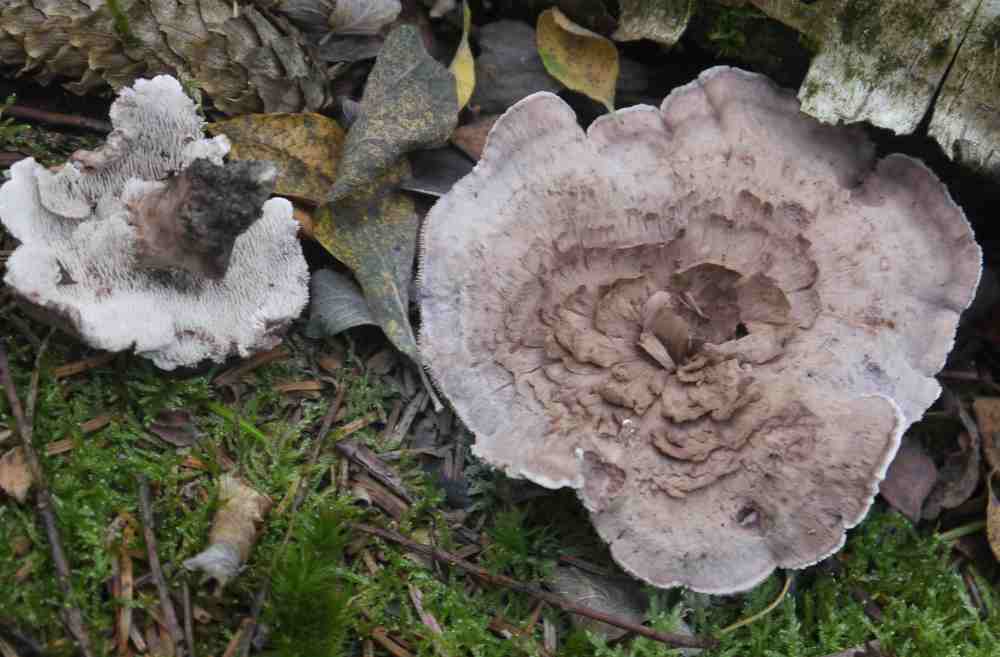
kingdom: Fungi
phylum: Basidiomycota
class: Agaricomycetes
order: Thelephorales
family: Thelephoraceae
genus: Phellodon
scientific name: Phellodon violascens
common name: violetbrun duftpigsvamp
